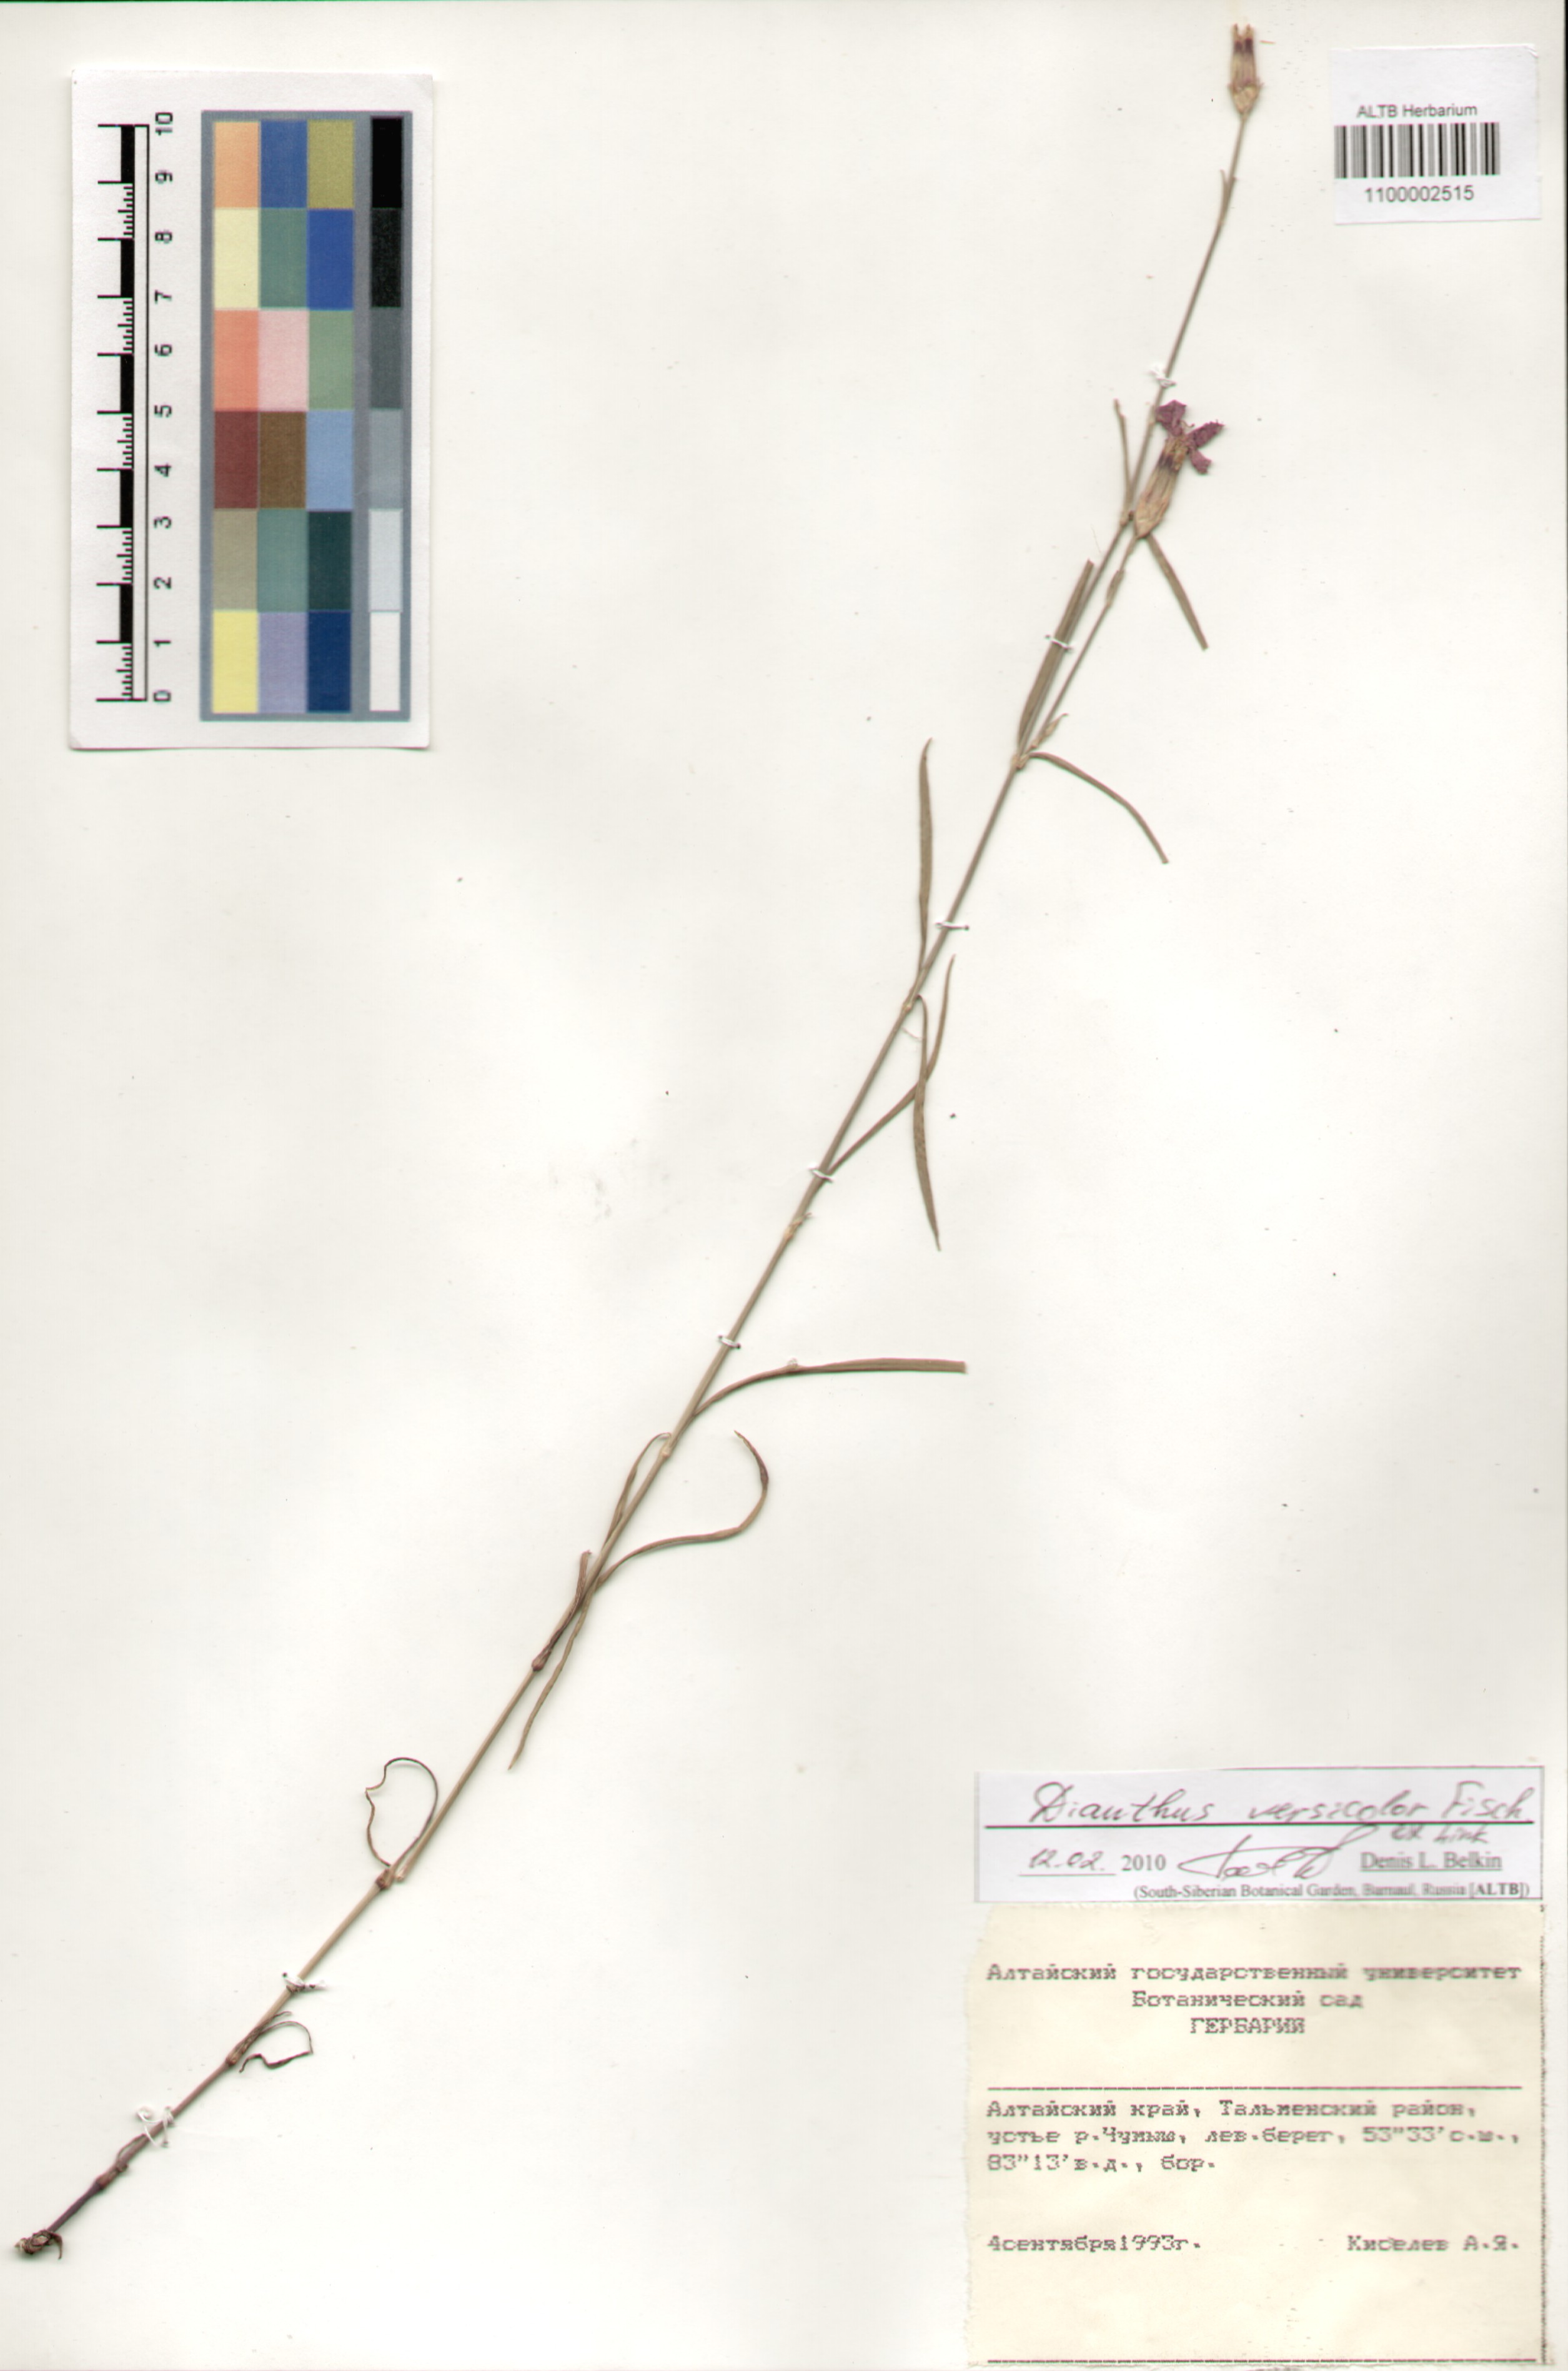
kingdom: Plantae
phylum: Tracheophyta
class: Magnoliopsida
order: Caryophyllales
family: Caryophyllaceae
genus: Dianthus
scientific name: Dianthus chinensis
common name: Rainbow pink
